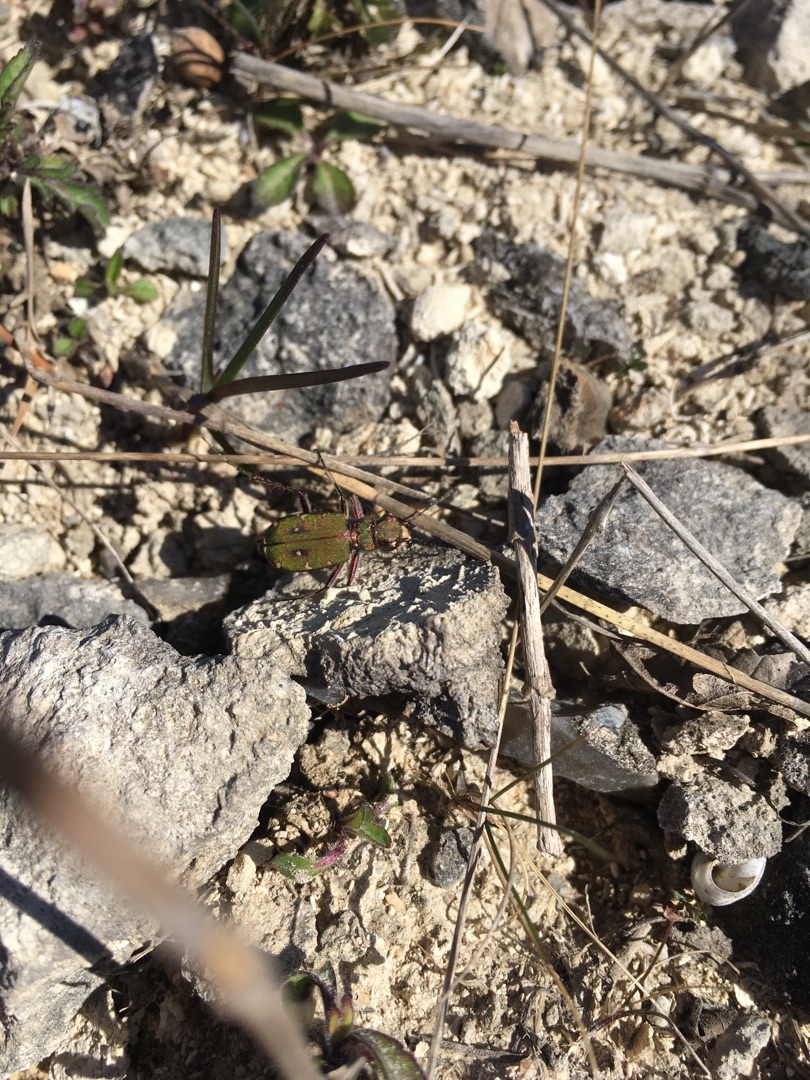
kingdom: Animalia
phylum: Arthropoda
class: Insecta
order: Coleoptera
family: Carabidae
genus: Cicindela
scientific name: Cicindela campestris
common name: Grøn sandspringer
